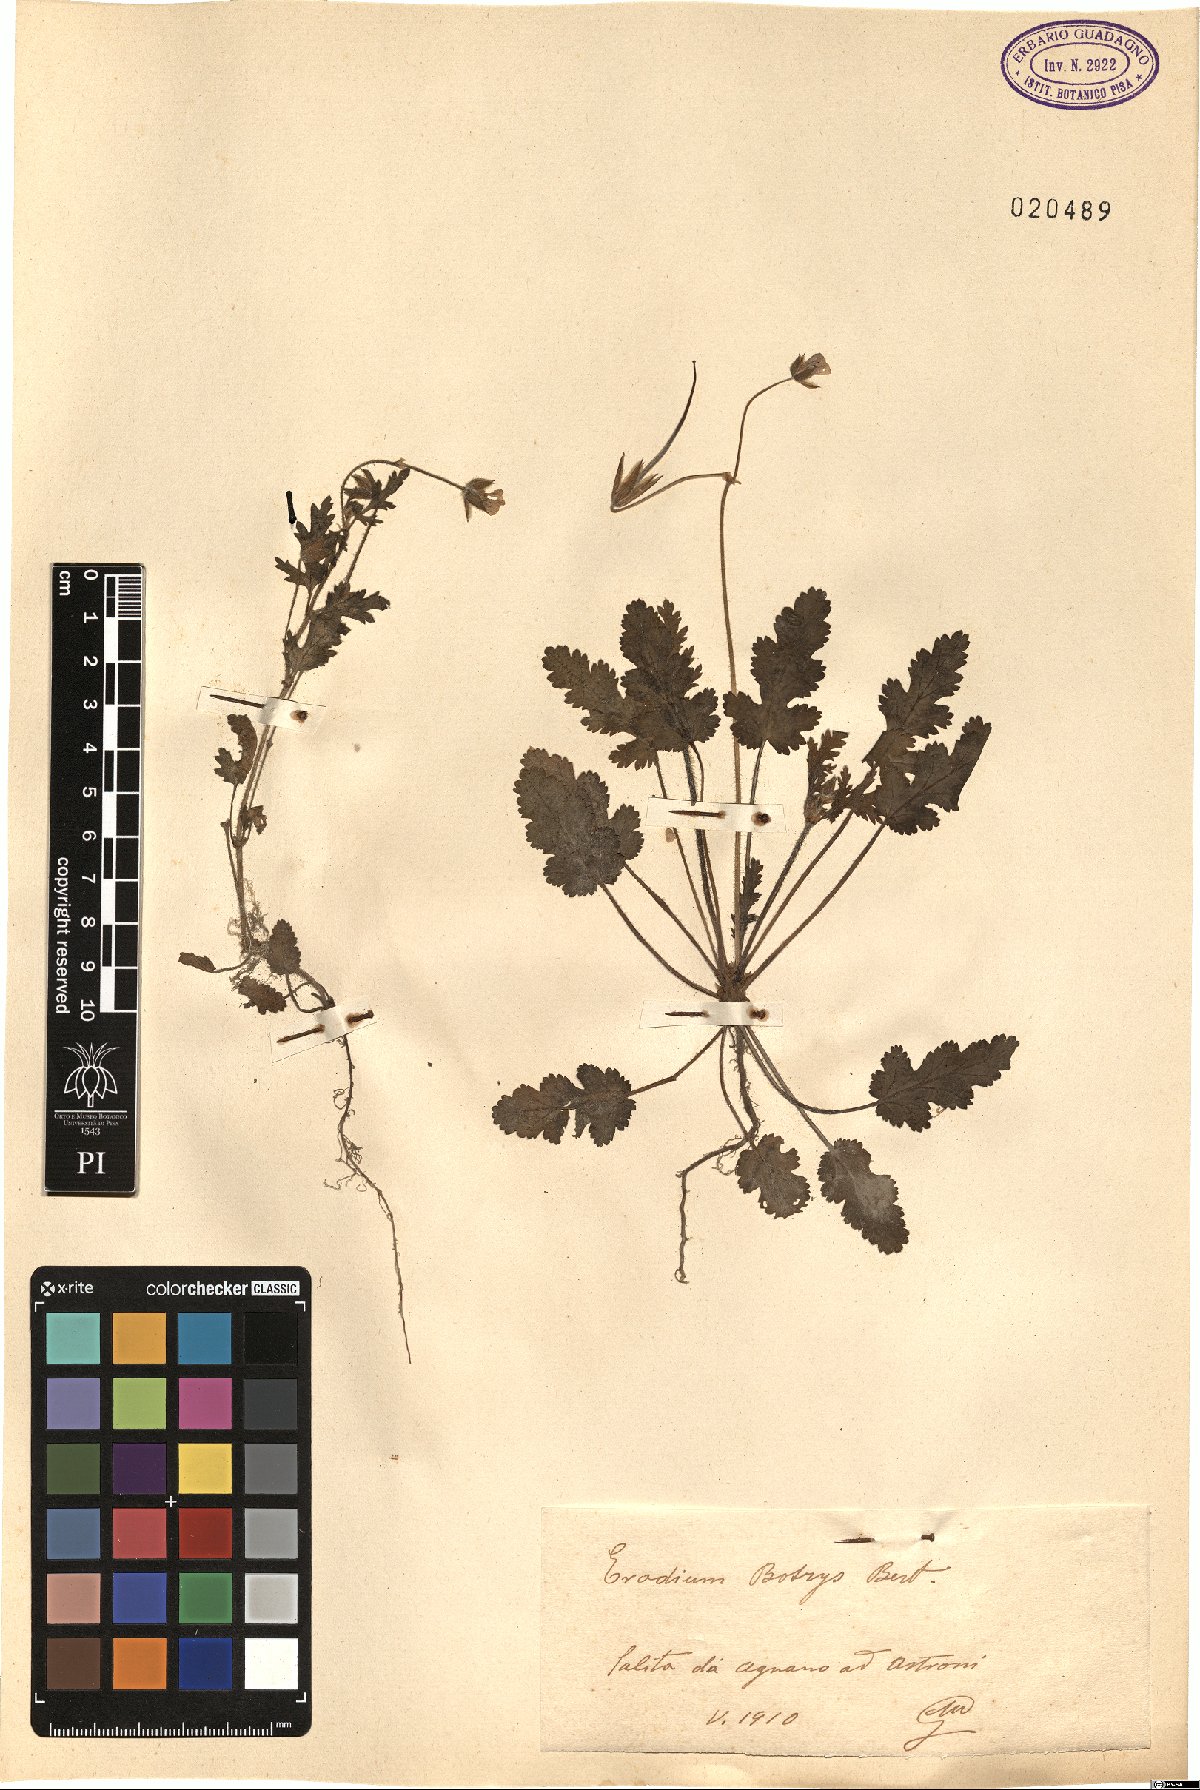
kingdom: Plantae
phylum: Tracheophyta
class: Magnoliopsida
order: Geraniales
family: Geraniaceae
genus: Erodium
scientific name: Erodium botrys
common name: Mediterranean stork's-bill
